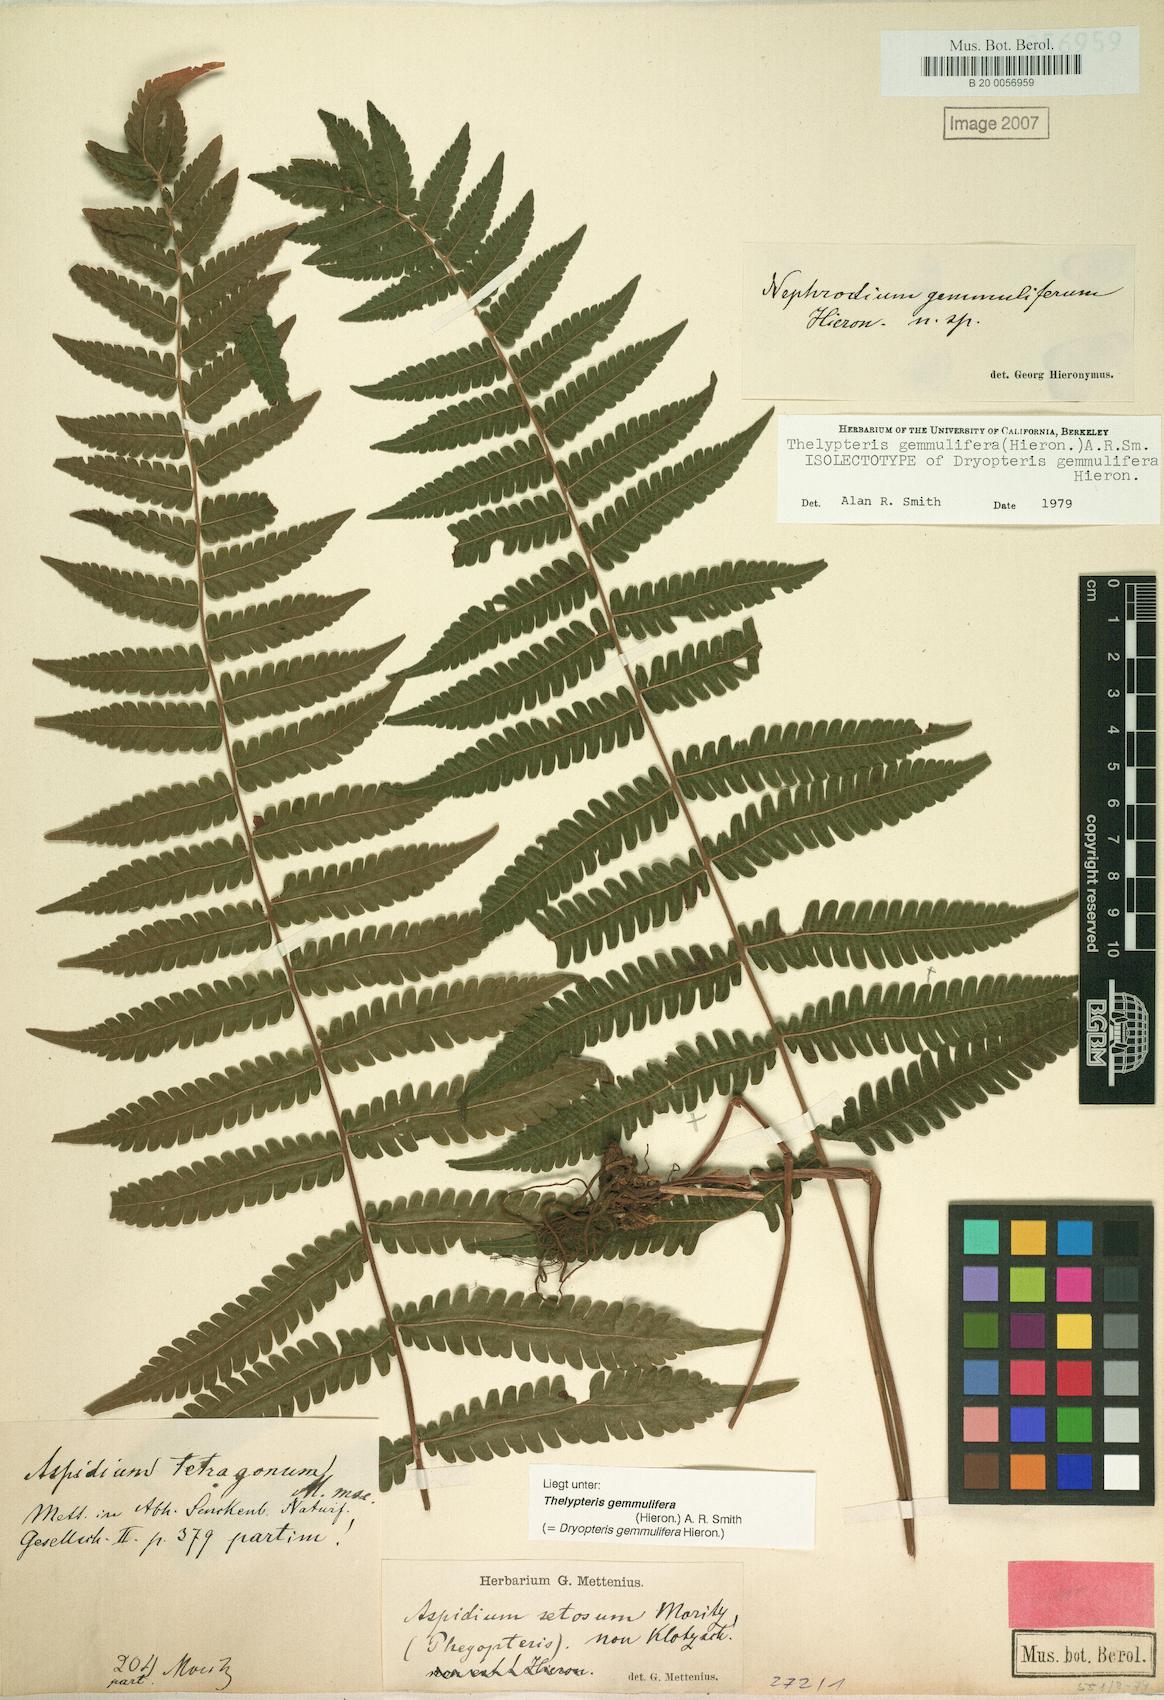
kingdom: Plantae
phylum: Tracheophyta
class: Polypodiopsida
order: Polypodiales
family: Thelypteridaceae
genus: Goniopteris
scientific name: Goniopteris gemmulifera
